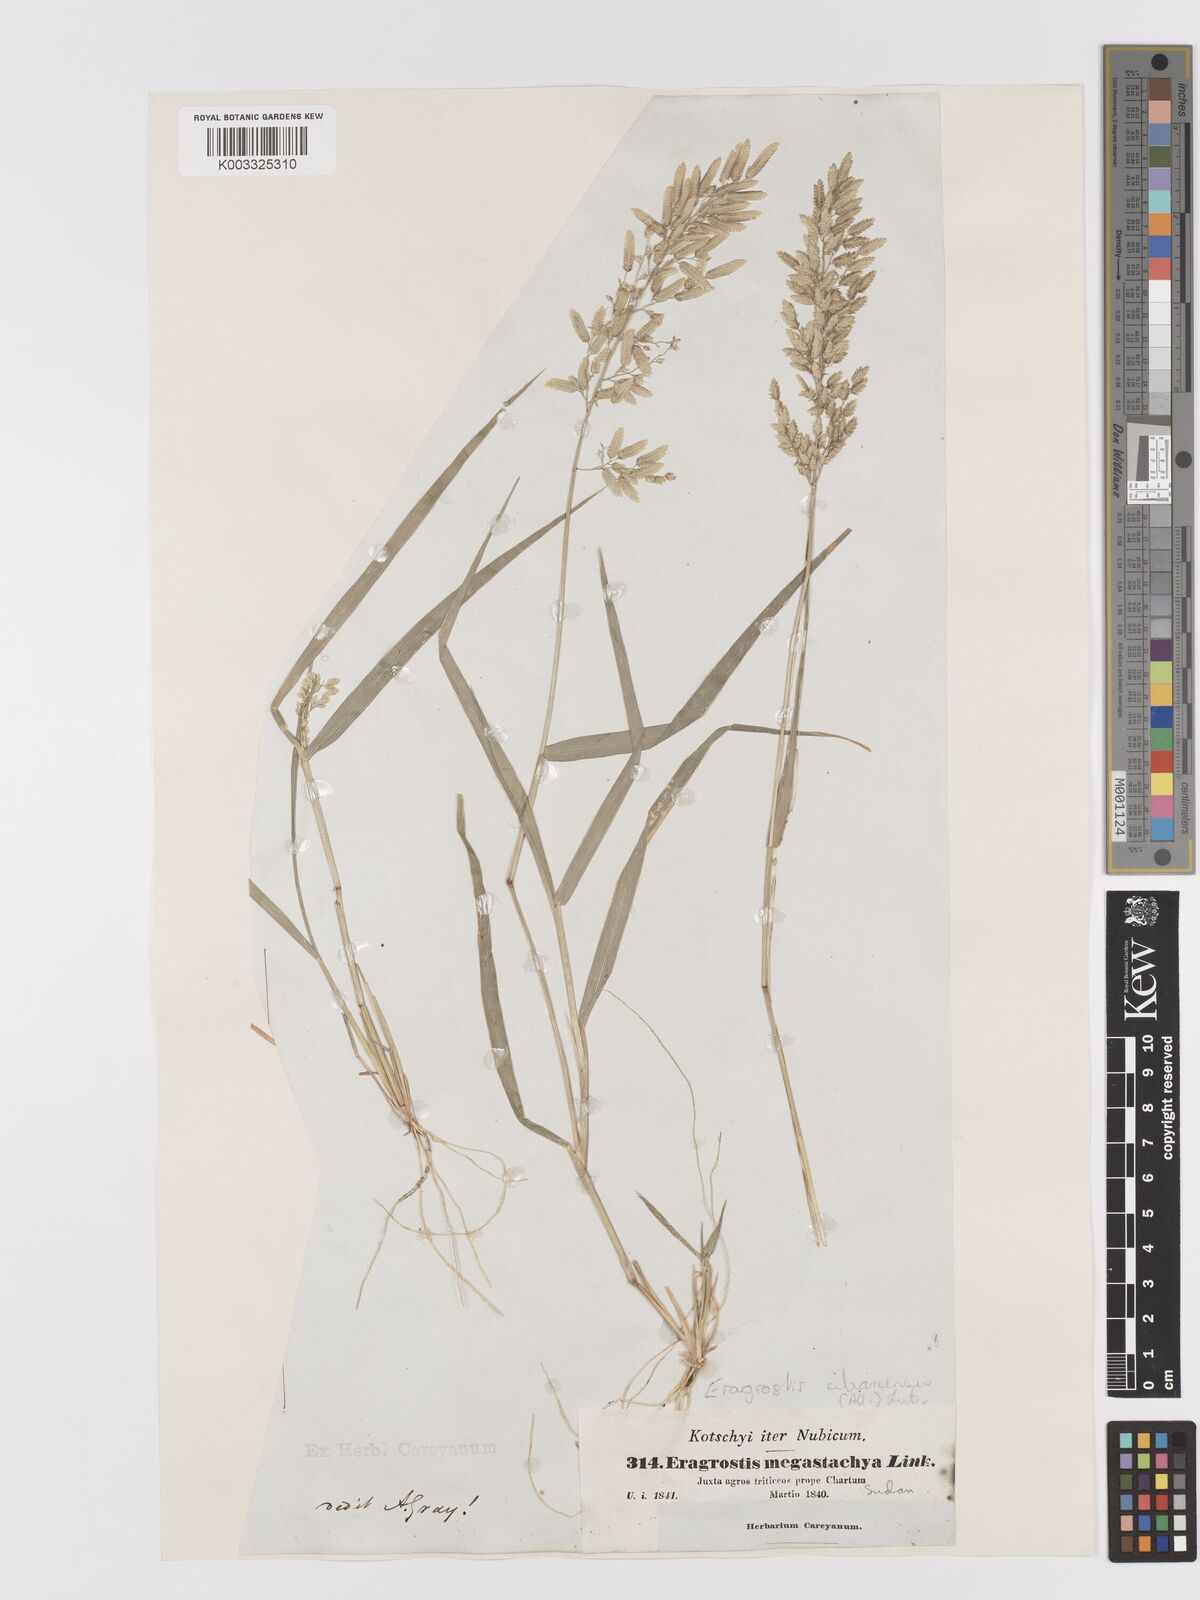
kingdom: Plantae
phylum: Tracheophyta
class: Liliopsida
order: Poales
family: Poaceae
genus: Eragrostis
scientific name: Eragrostis cilianensis
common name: Stinkgrass
